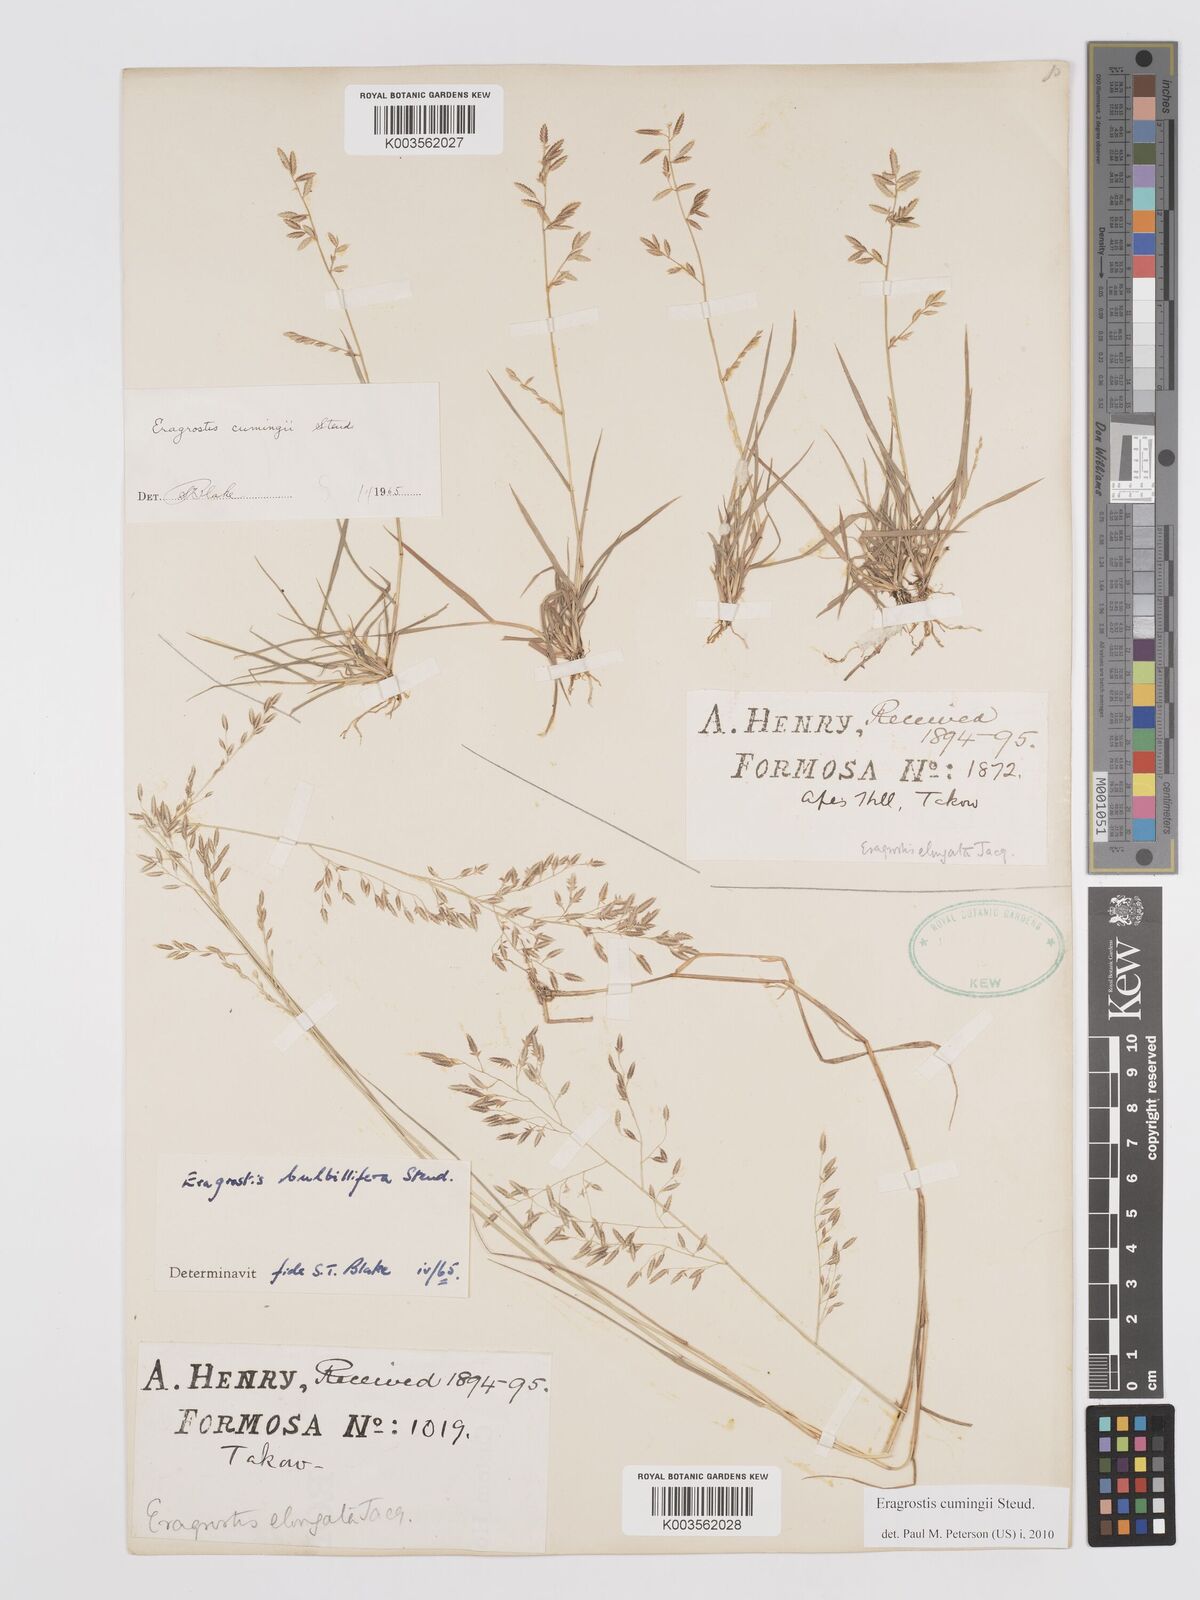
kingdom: Plantae
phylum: Tracheophyta
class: Liliopsida
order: Poales
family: Poaceae
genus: Eragrostis
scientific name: Eragrostis cumingii
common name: Cuming's lovegrass
